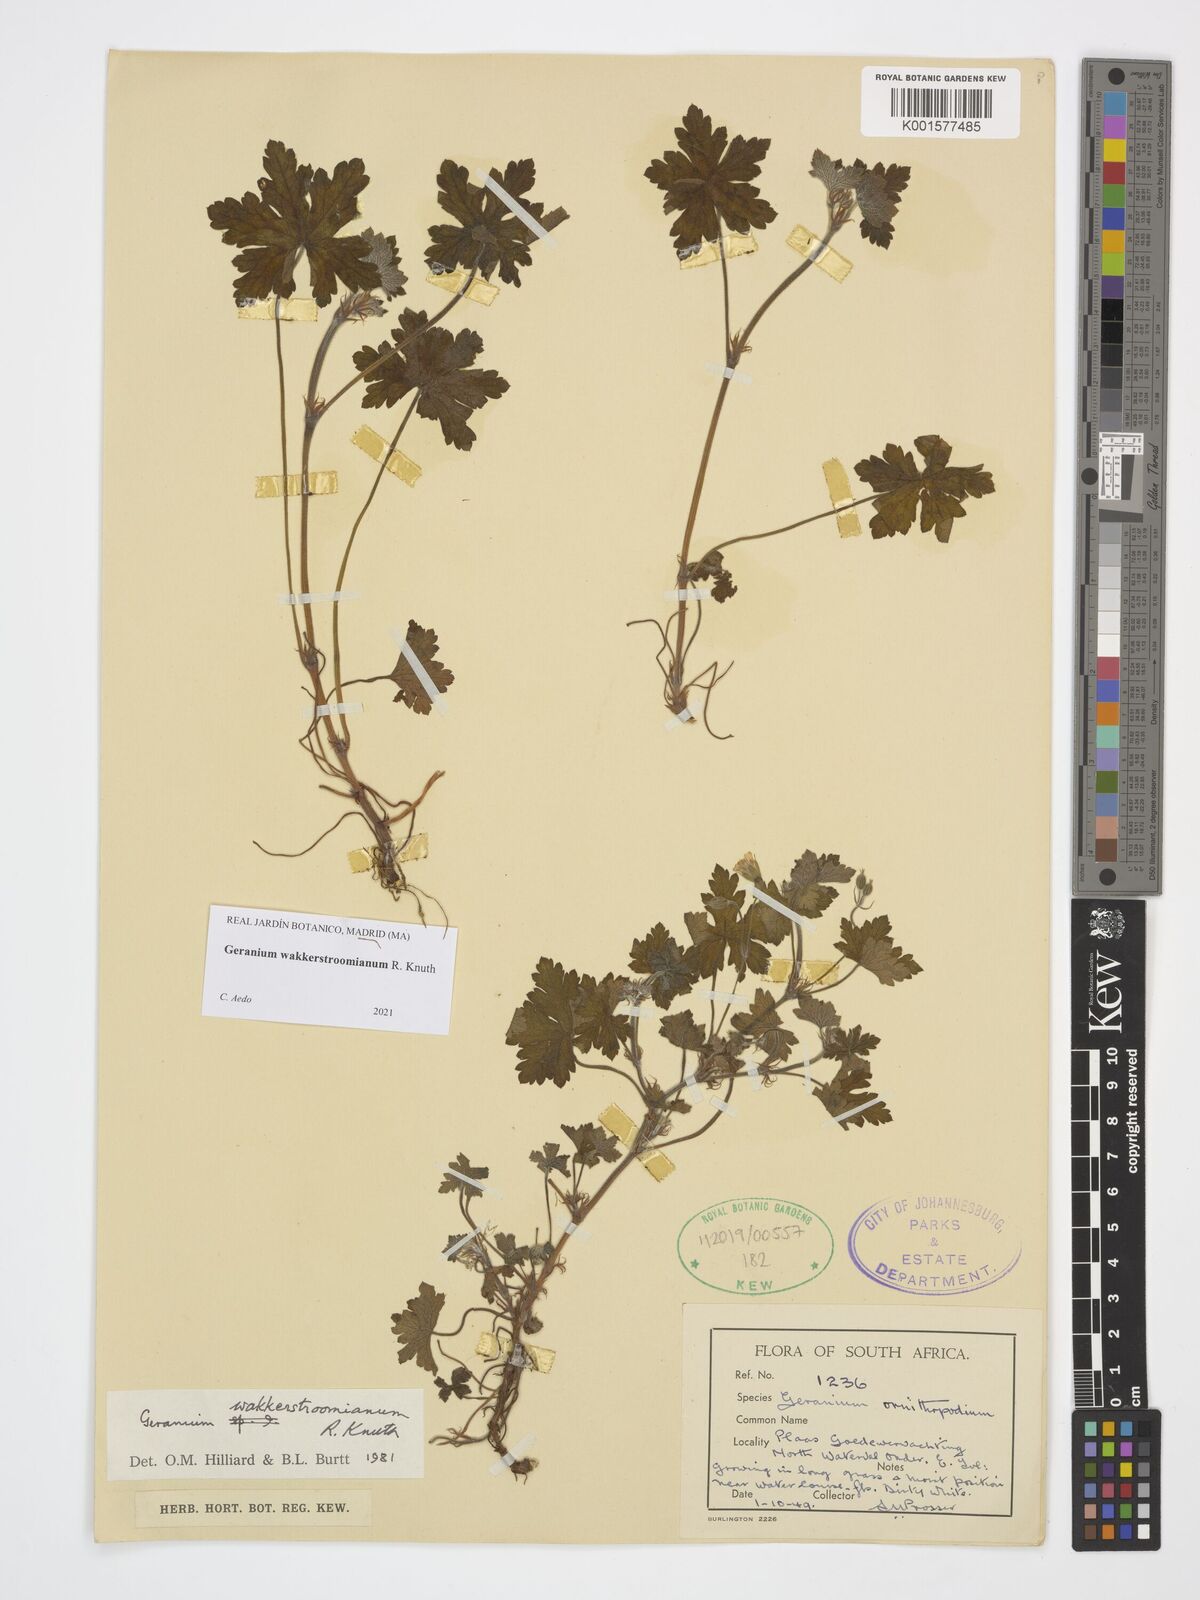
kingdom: Plantae
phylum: Tracheophyta
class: Magnoliopsida
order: Geraniales
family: Geraniaceae
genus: Geranium
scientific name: Geranium wakkerstroomianum
